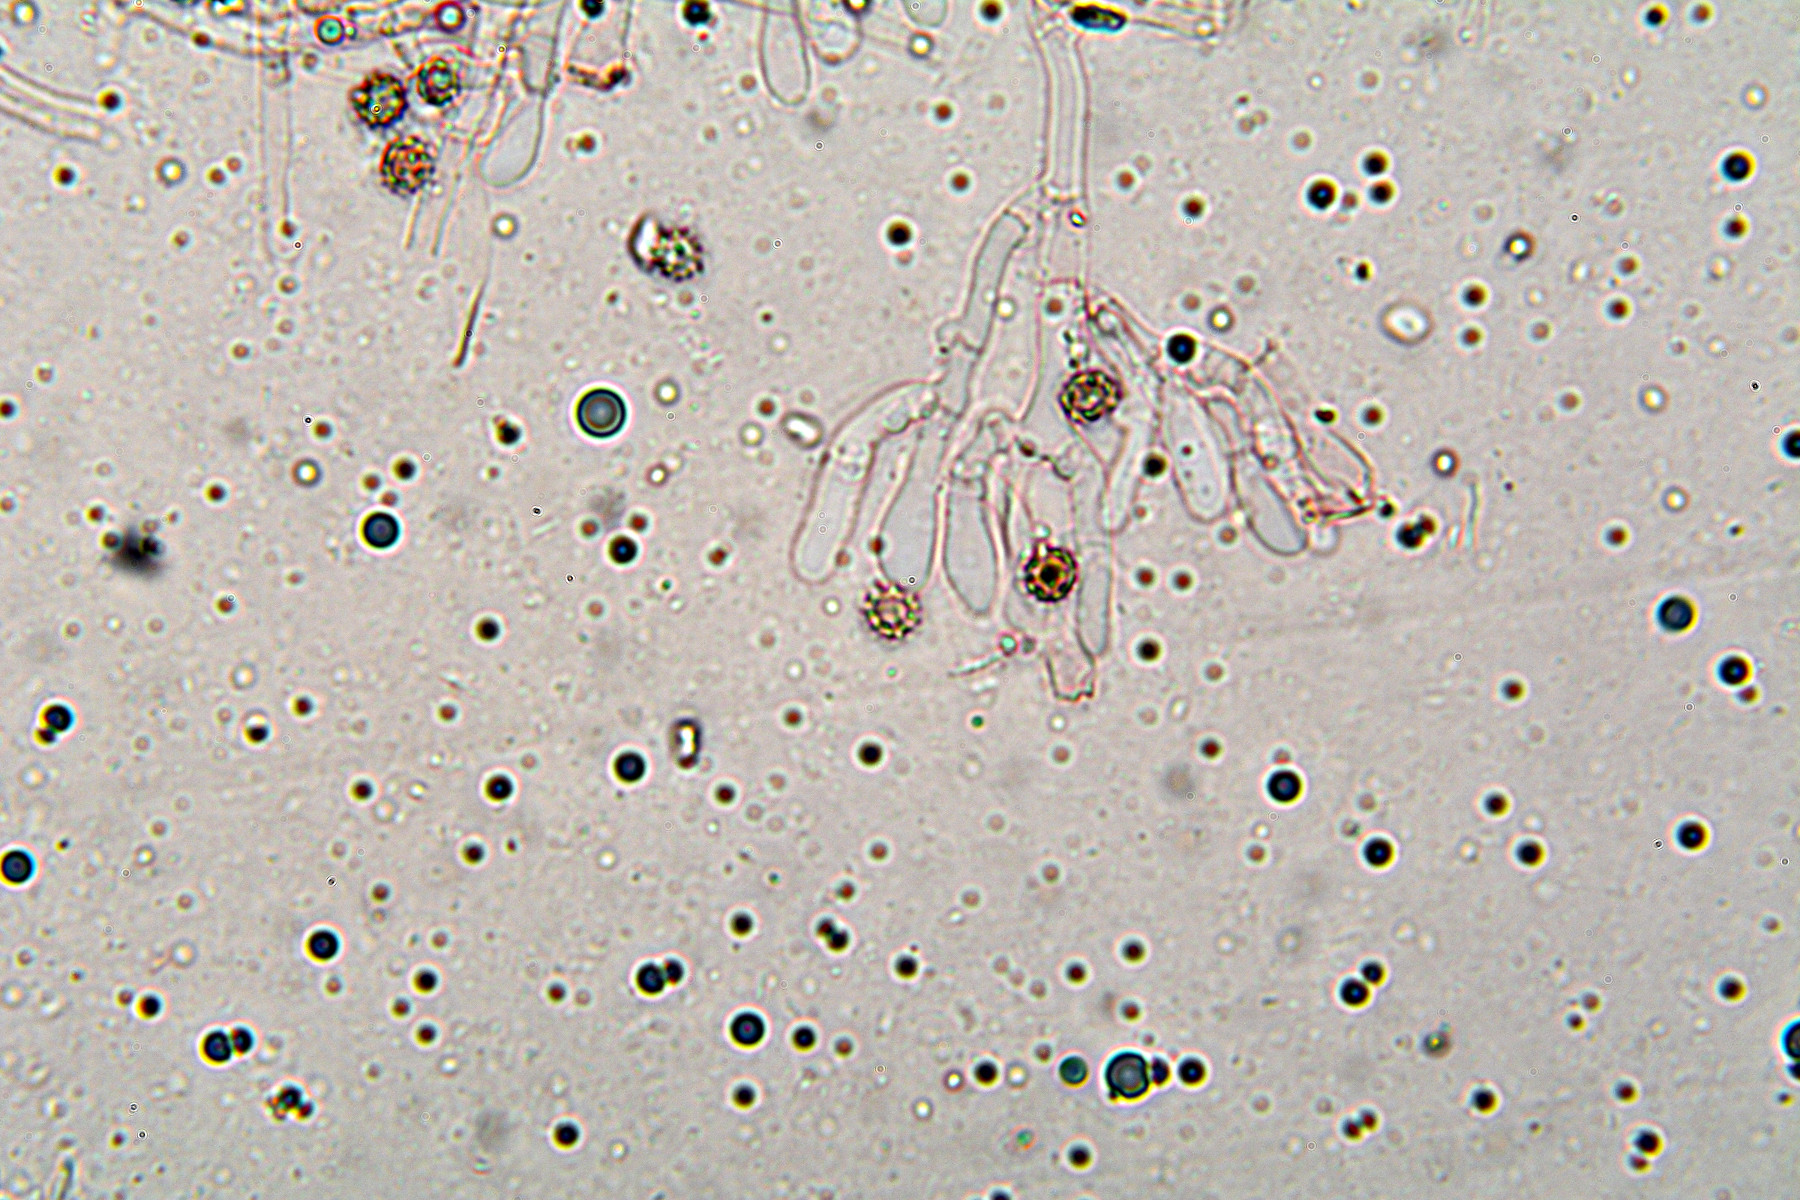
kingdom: Fungi
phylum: Basidiomycota
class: Agaricomycetes
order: Thelephorales
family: Thelephoraceae
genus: Tomentella
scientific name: Tomentella griseoumbrina
